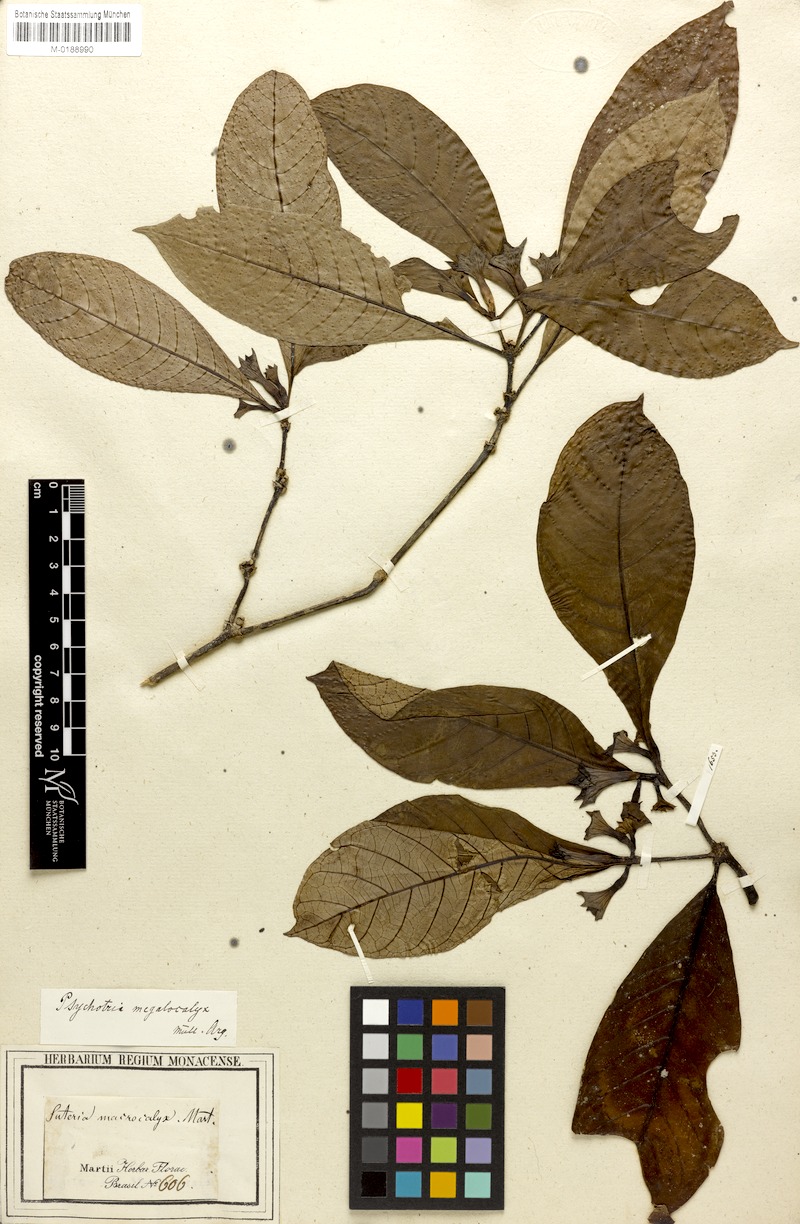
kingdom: Plantae
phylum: Tracheophyta
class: Magnoliopsida
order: Gentianales
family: Rubiaceae
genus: Psychotria
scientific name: Psychotria megalocalyx
